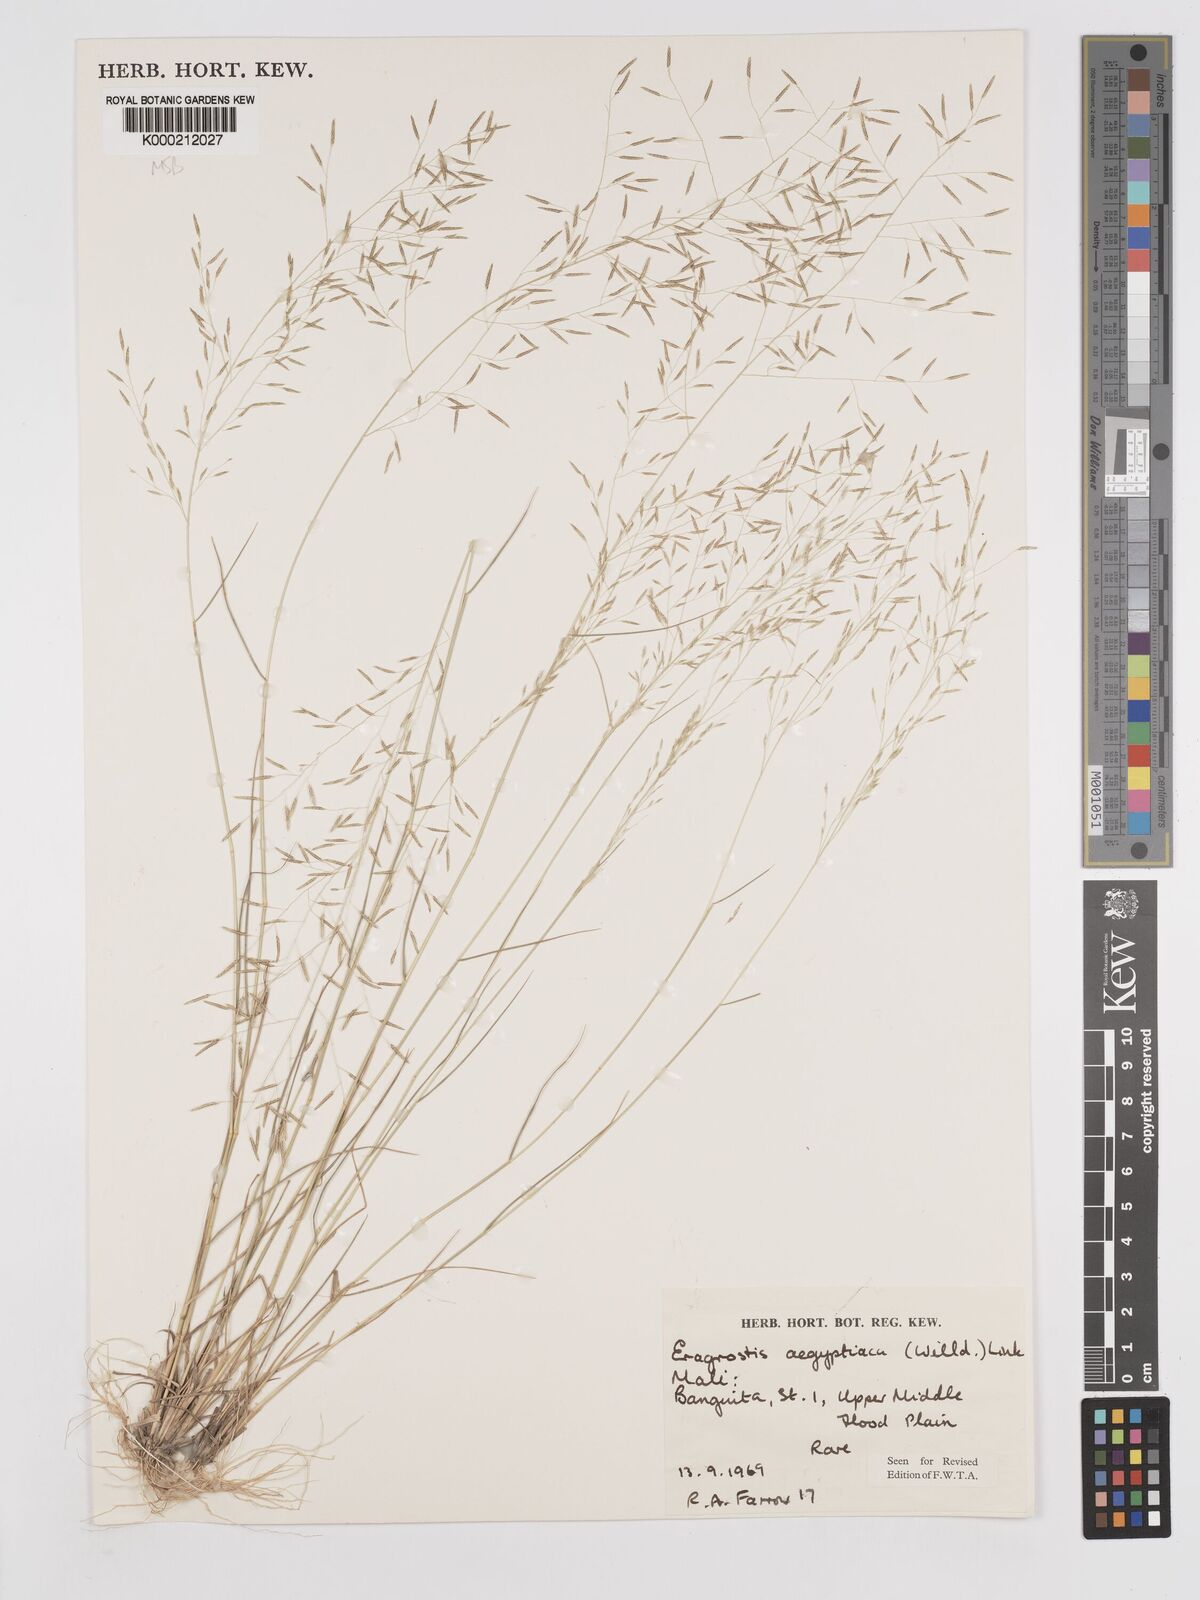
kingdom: Plantae
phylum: Tracheophyta
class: Liliopsida
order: Poales
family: Poaceae
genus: Eragrostis
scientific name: Eragrostis aegyptiaca
